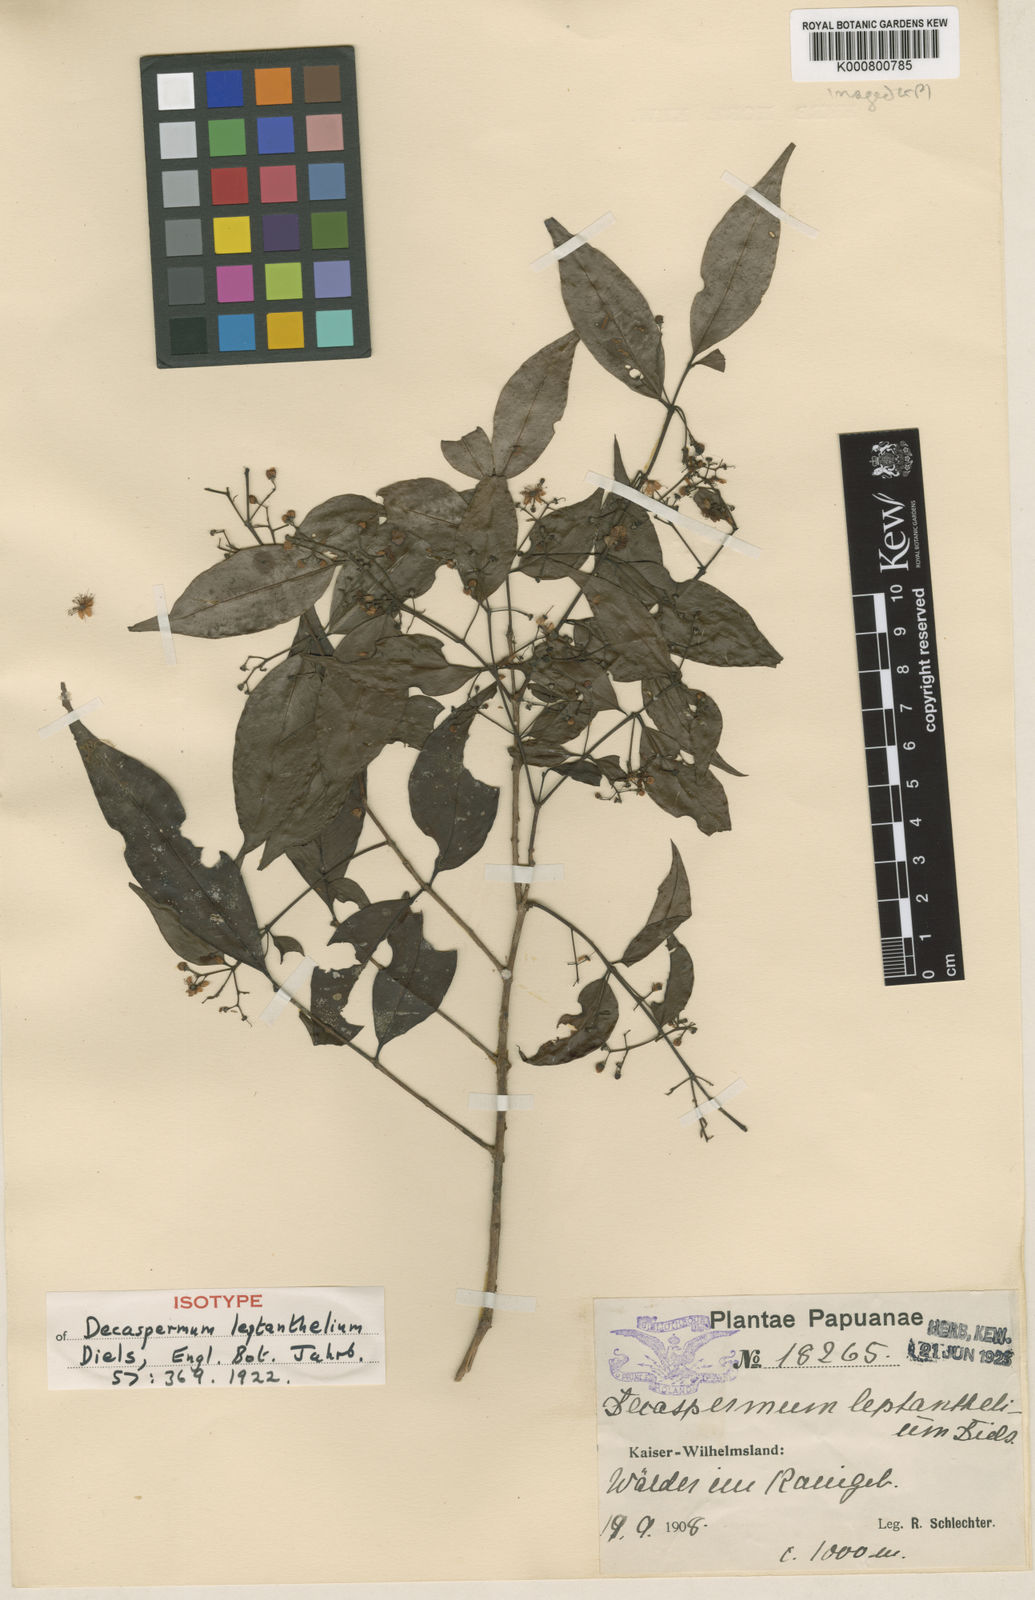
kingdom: Plantae
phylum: Tracheophyta
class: Magnoliopsida
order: Myrtales
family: Myrtaceae
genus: Decaspermum
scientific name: Decaspermum bracteatum
